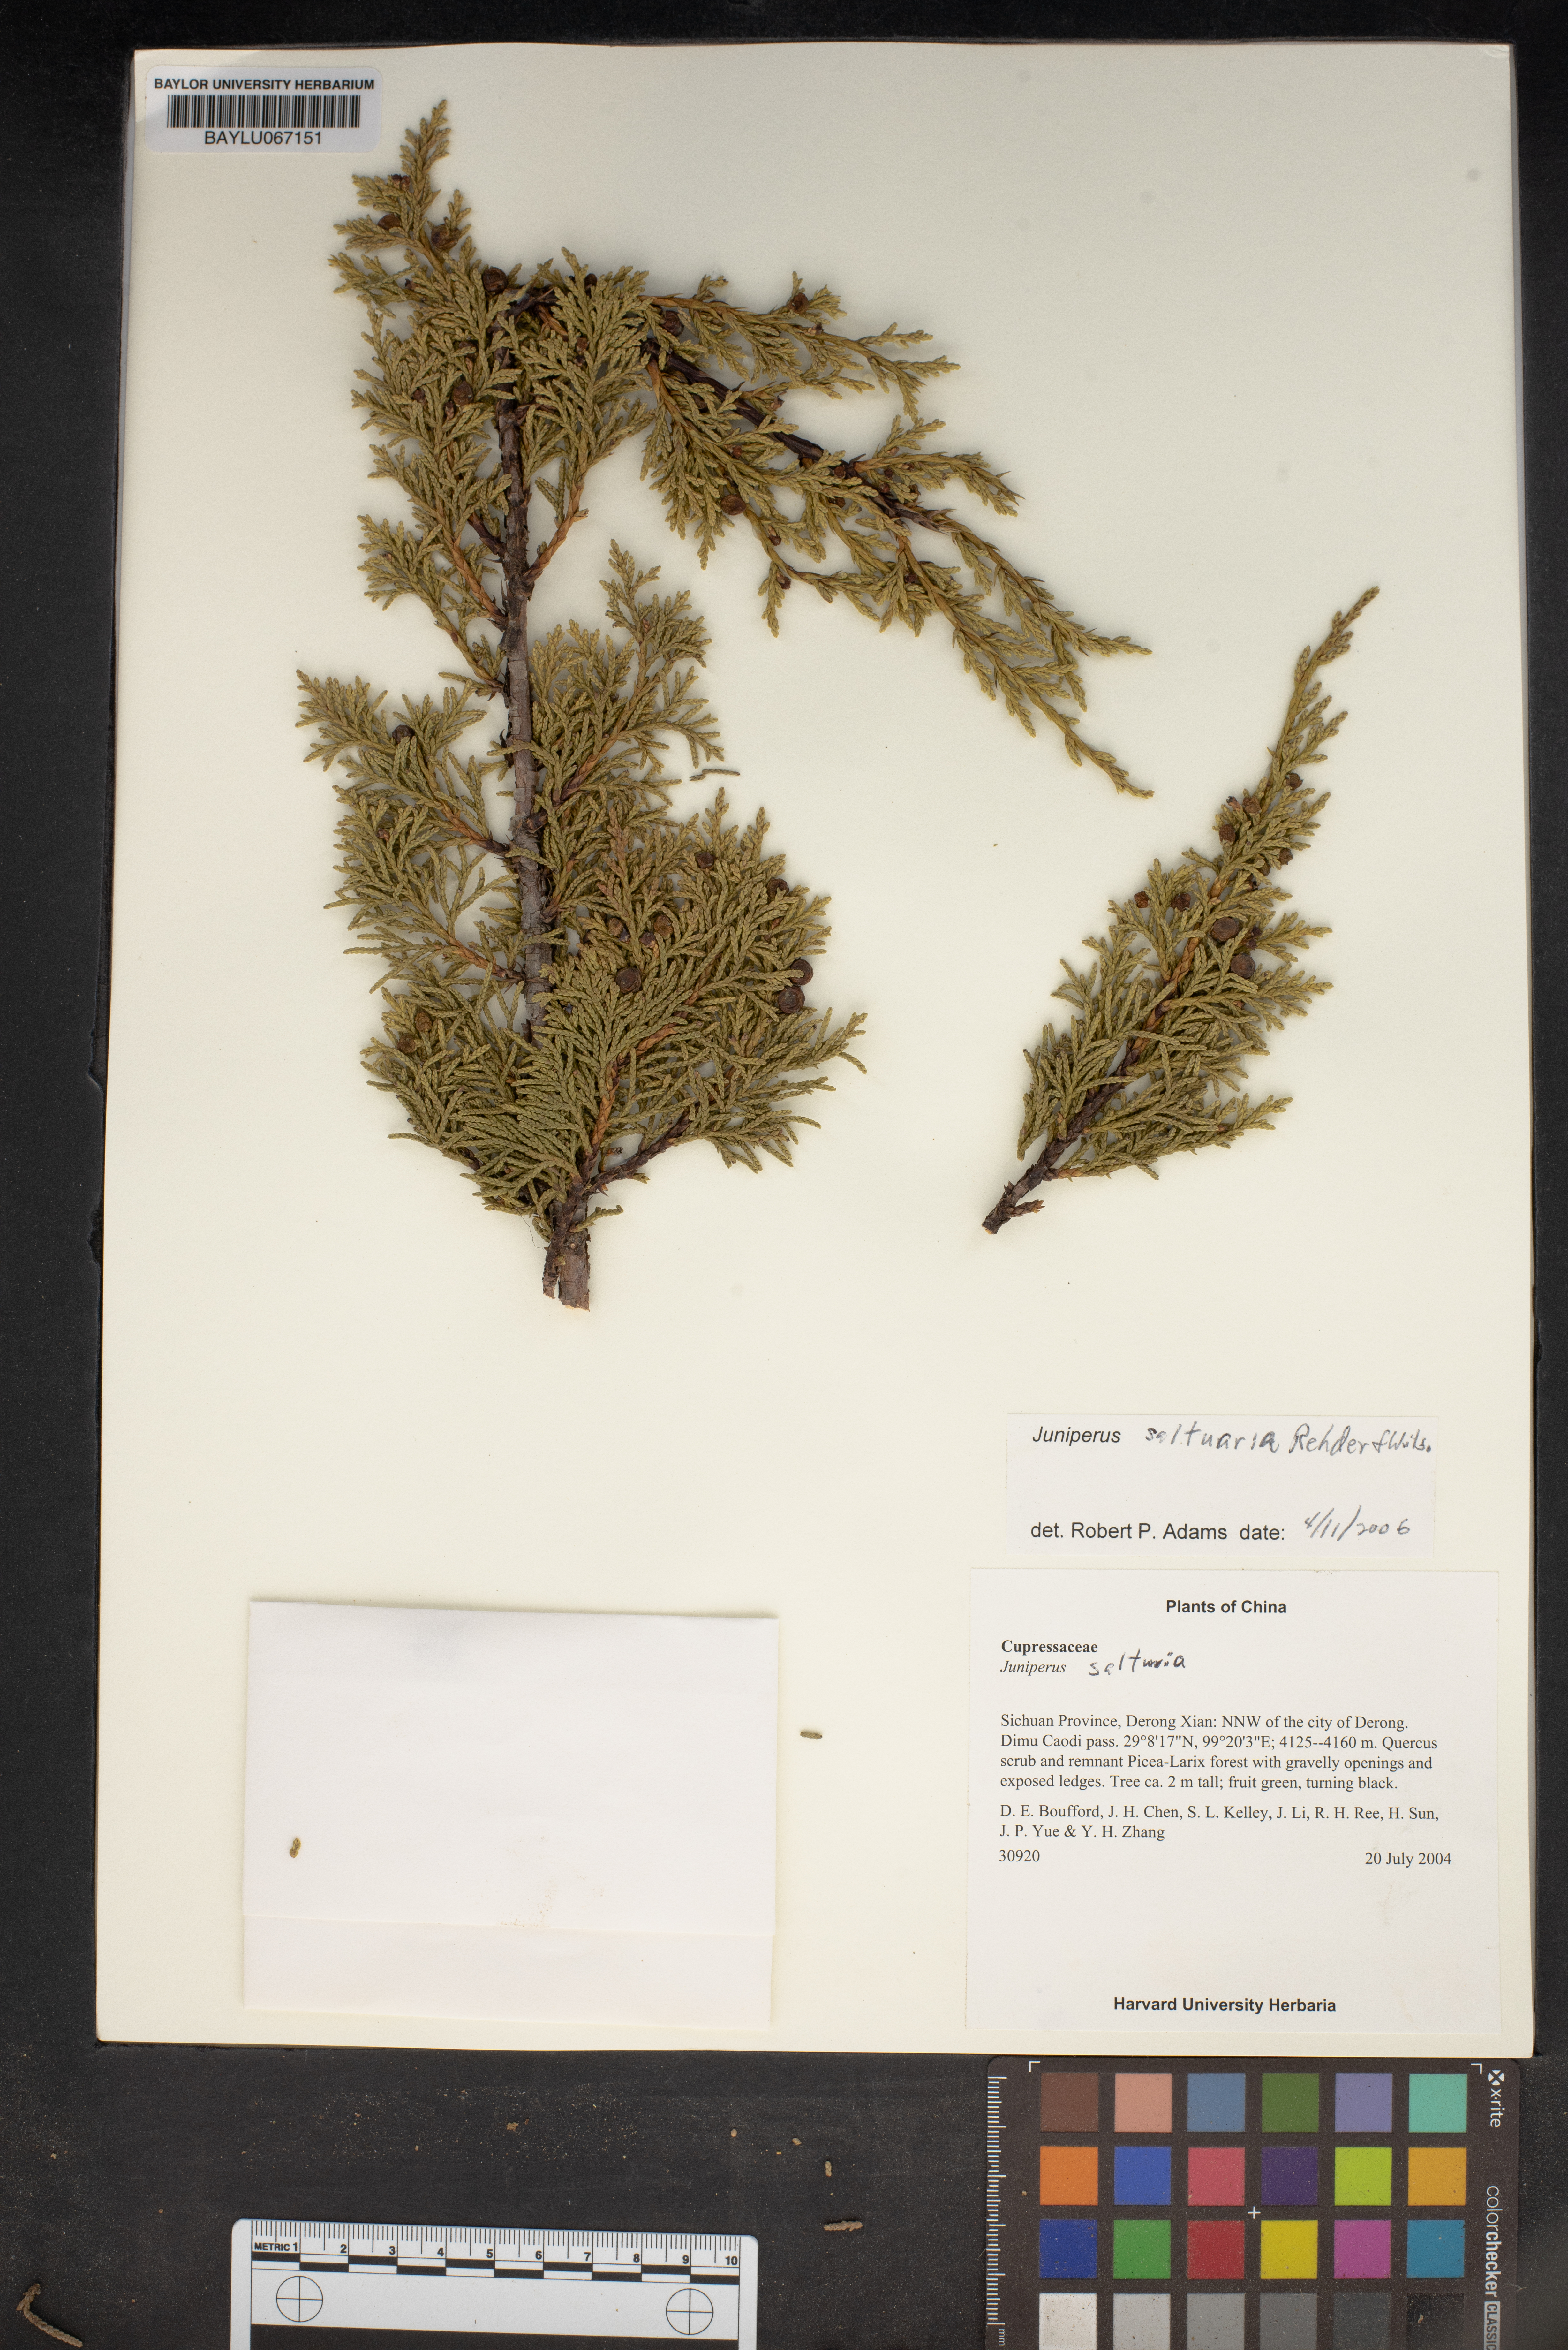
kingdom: Plantae
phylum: Tracheophyta
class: Pinopsida
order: Pinales
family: Cupressaceae
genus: Juniperus
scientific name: Juniperus saltuaria
